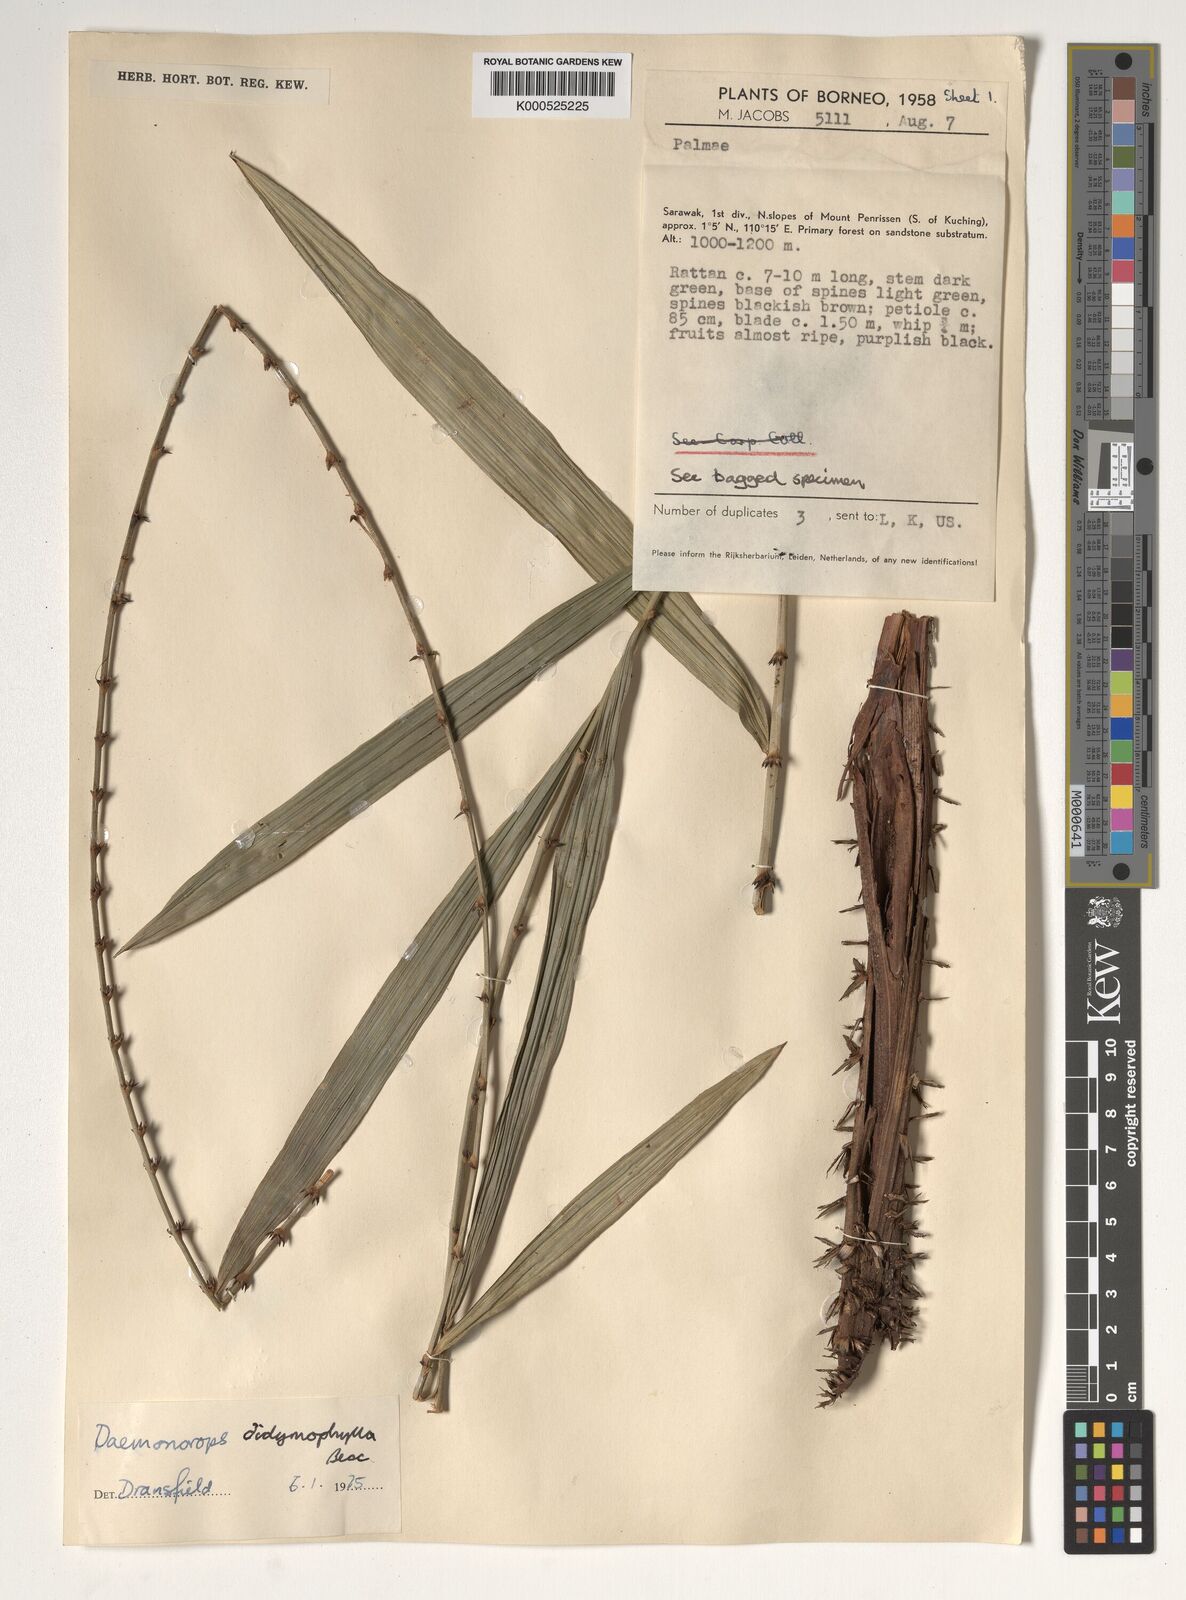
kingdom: Plantae
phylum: Tracheophyta
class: Liliopsida
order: Arecales
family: Arecaceae
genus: Calamus
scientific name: Calamus gracilipes
